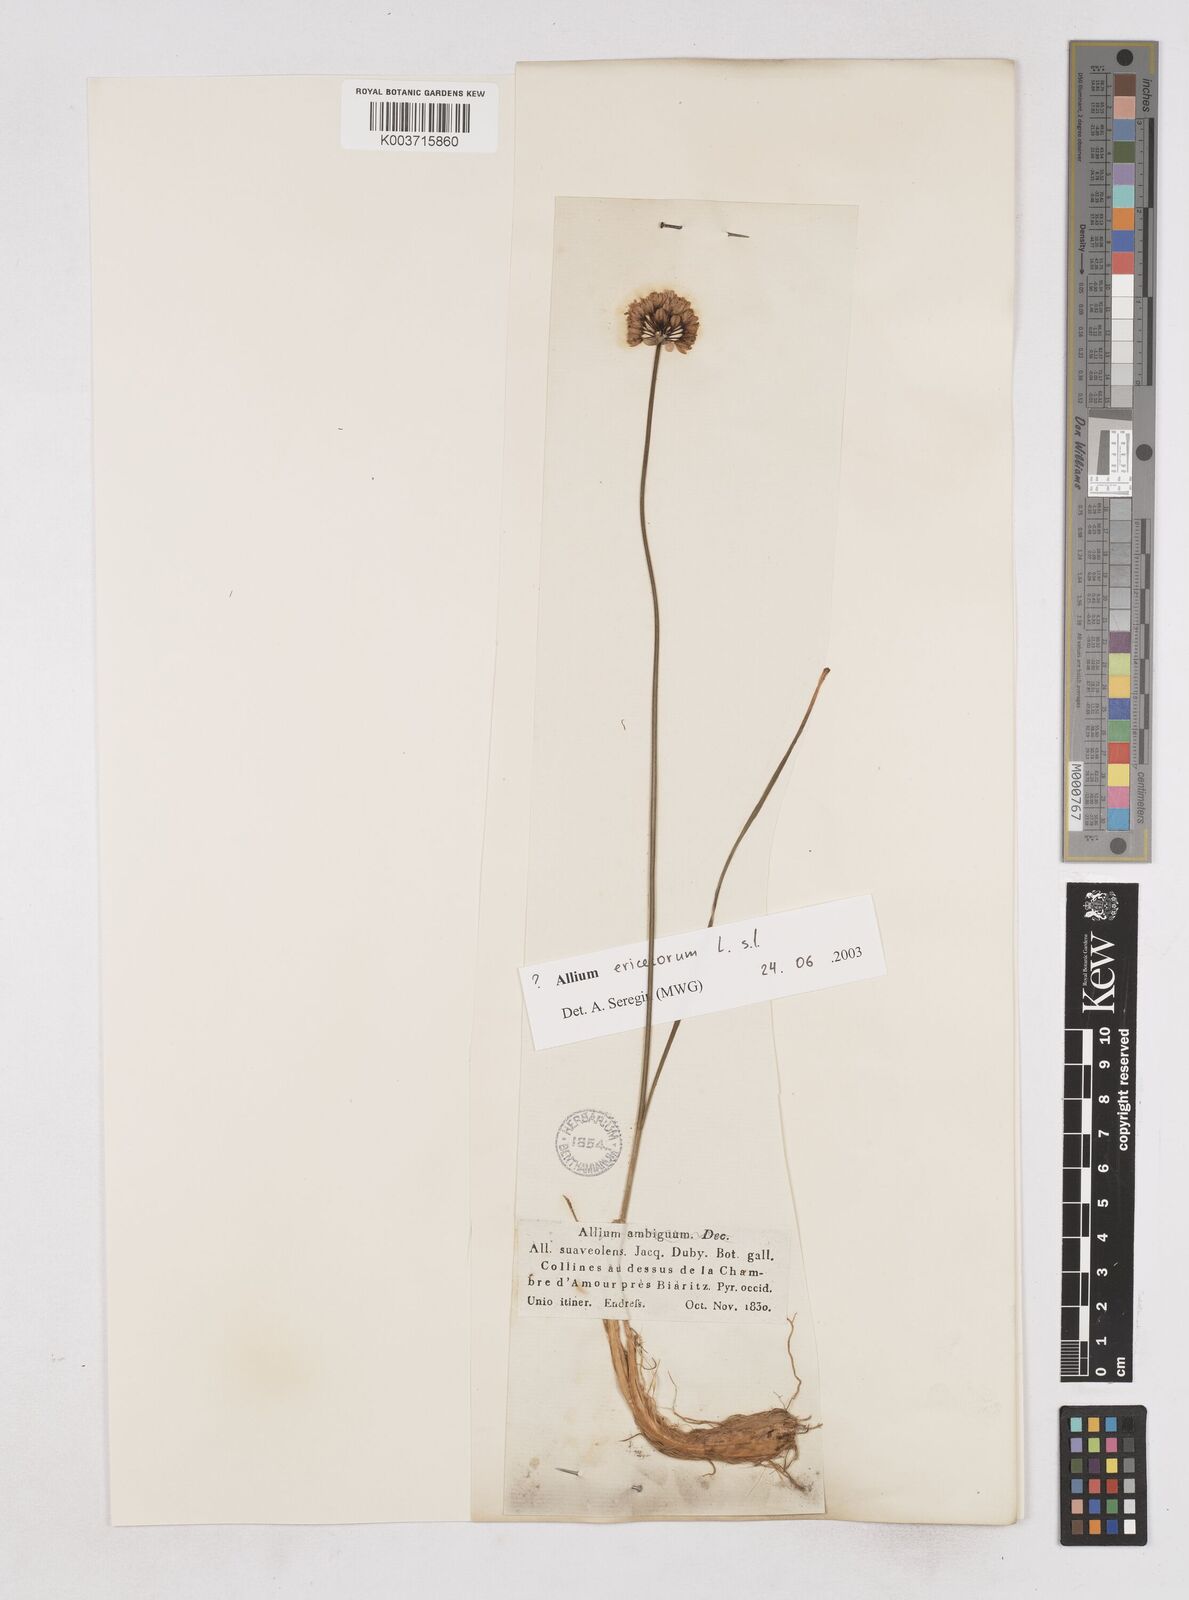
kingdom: Plantae
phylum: Tracheophyta
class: Liliopsida
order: Asparagales
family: Amaryllidaceae
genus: Allium
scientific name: Allium ericetorum
